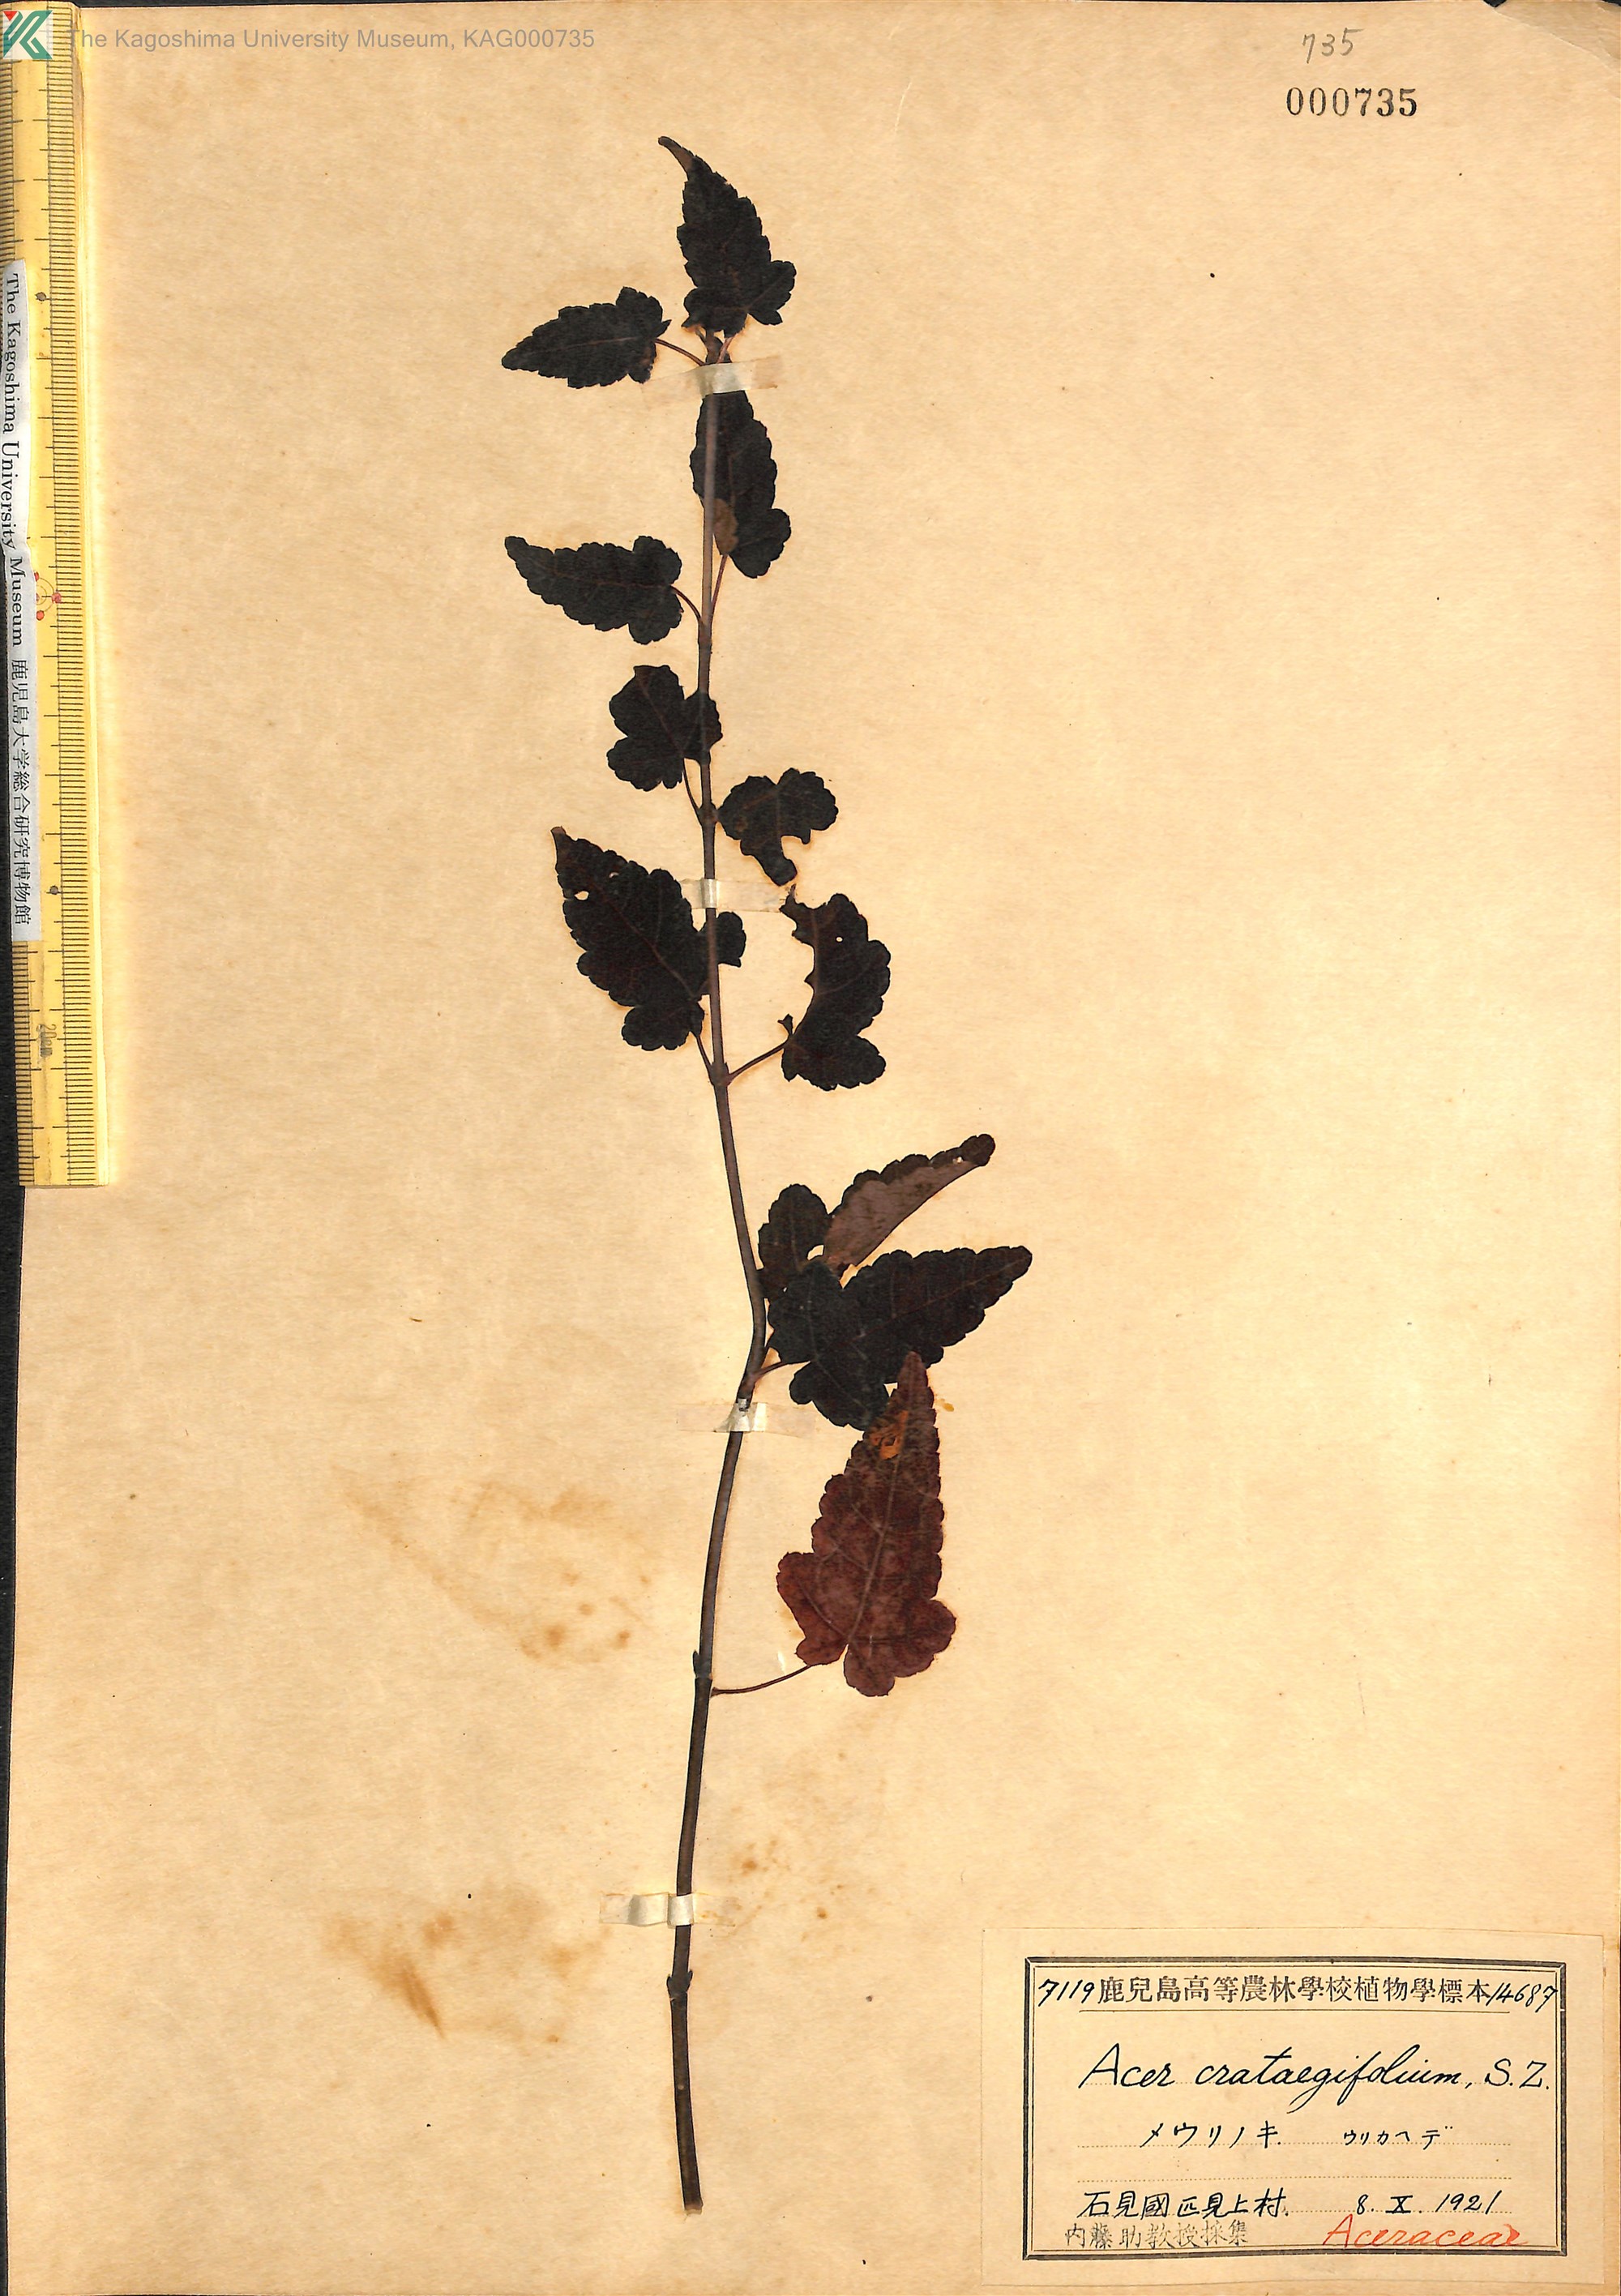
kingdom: Plantae
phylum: Tracheophyta
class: Magnoliopsida
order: Sapindales
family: Sapindaceae
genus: Acer
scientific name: Acer crataegifolium
